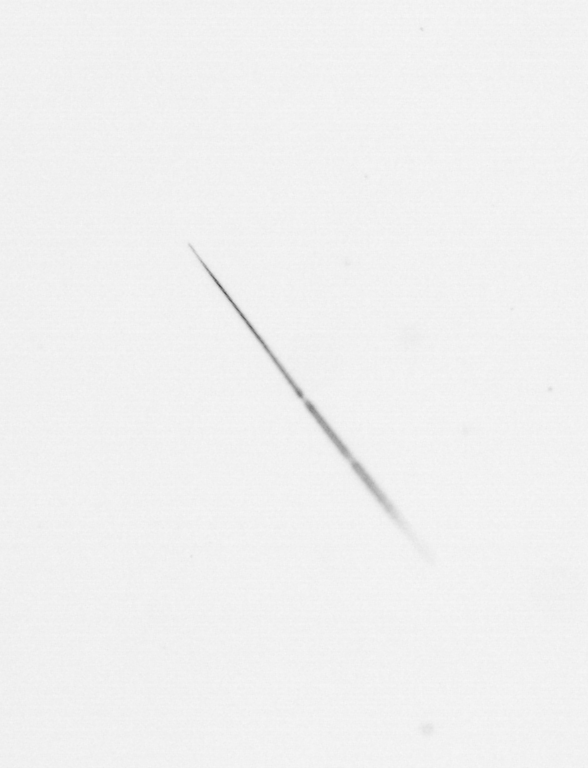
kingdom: Chromista
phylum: Ochrophyta
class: Bacillariophyceae
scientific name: Bacillariophyceae
